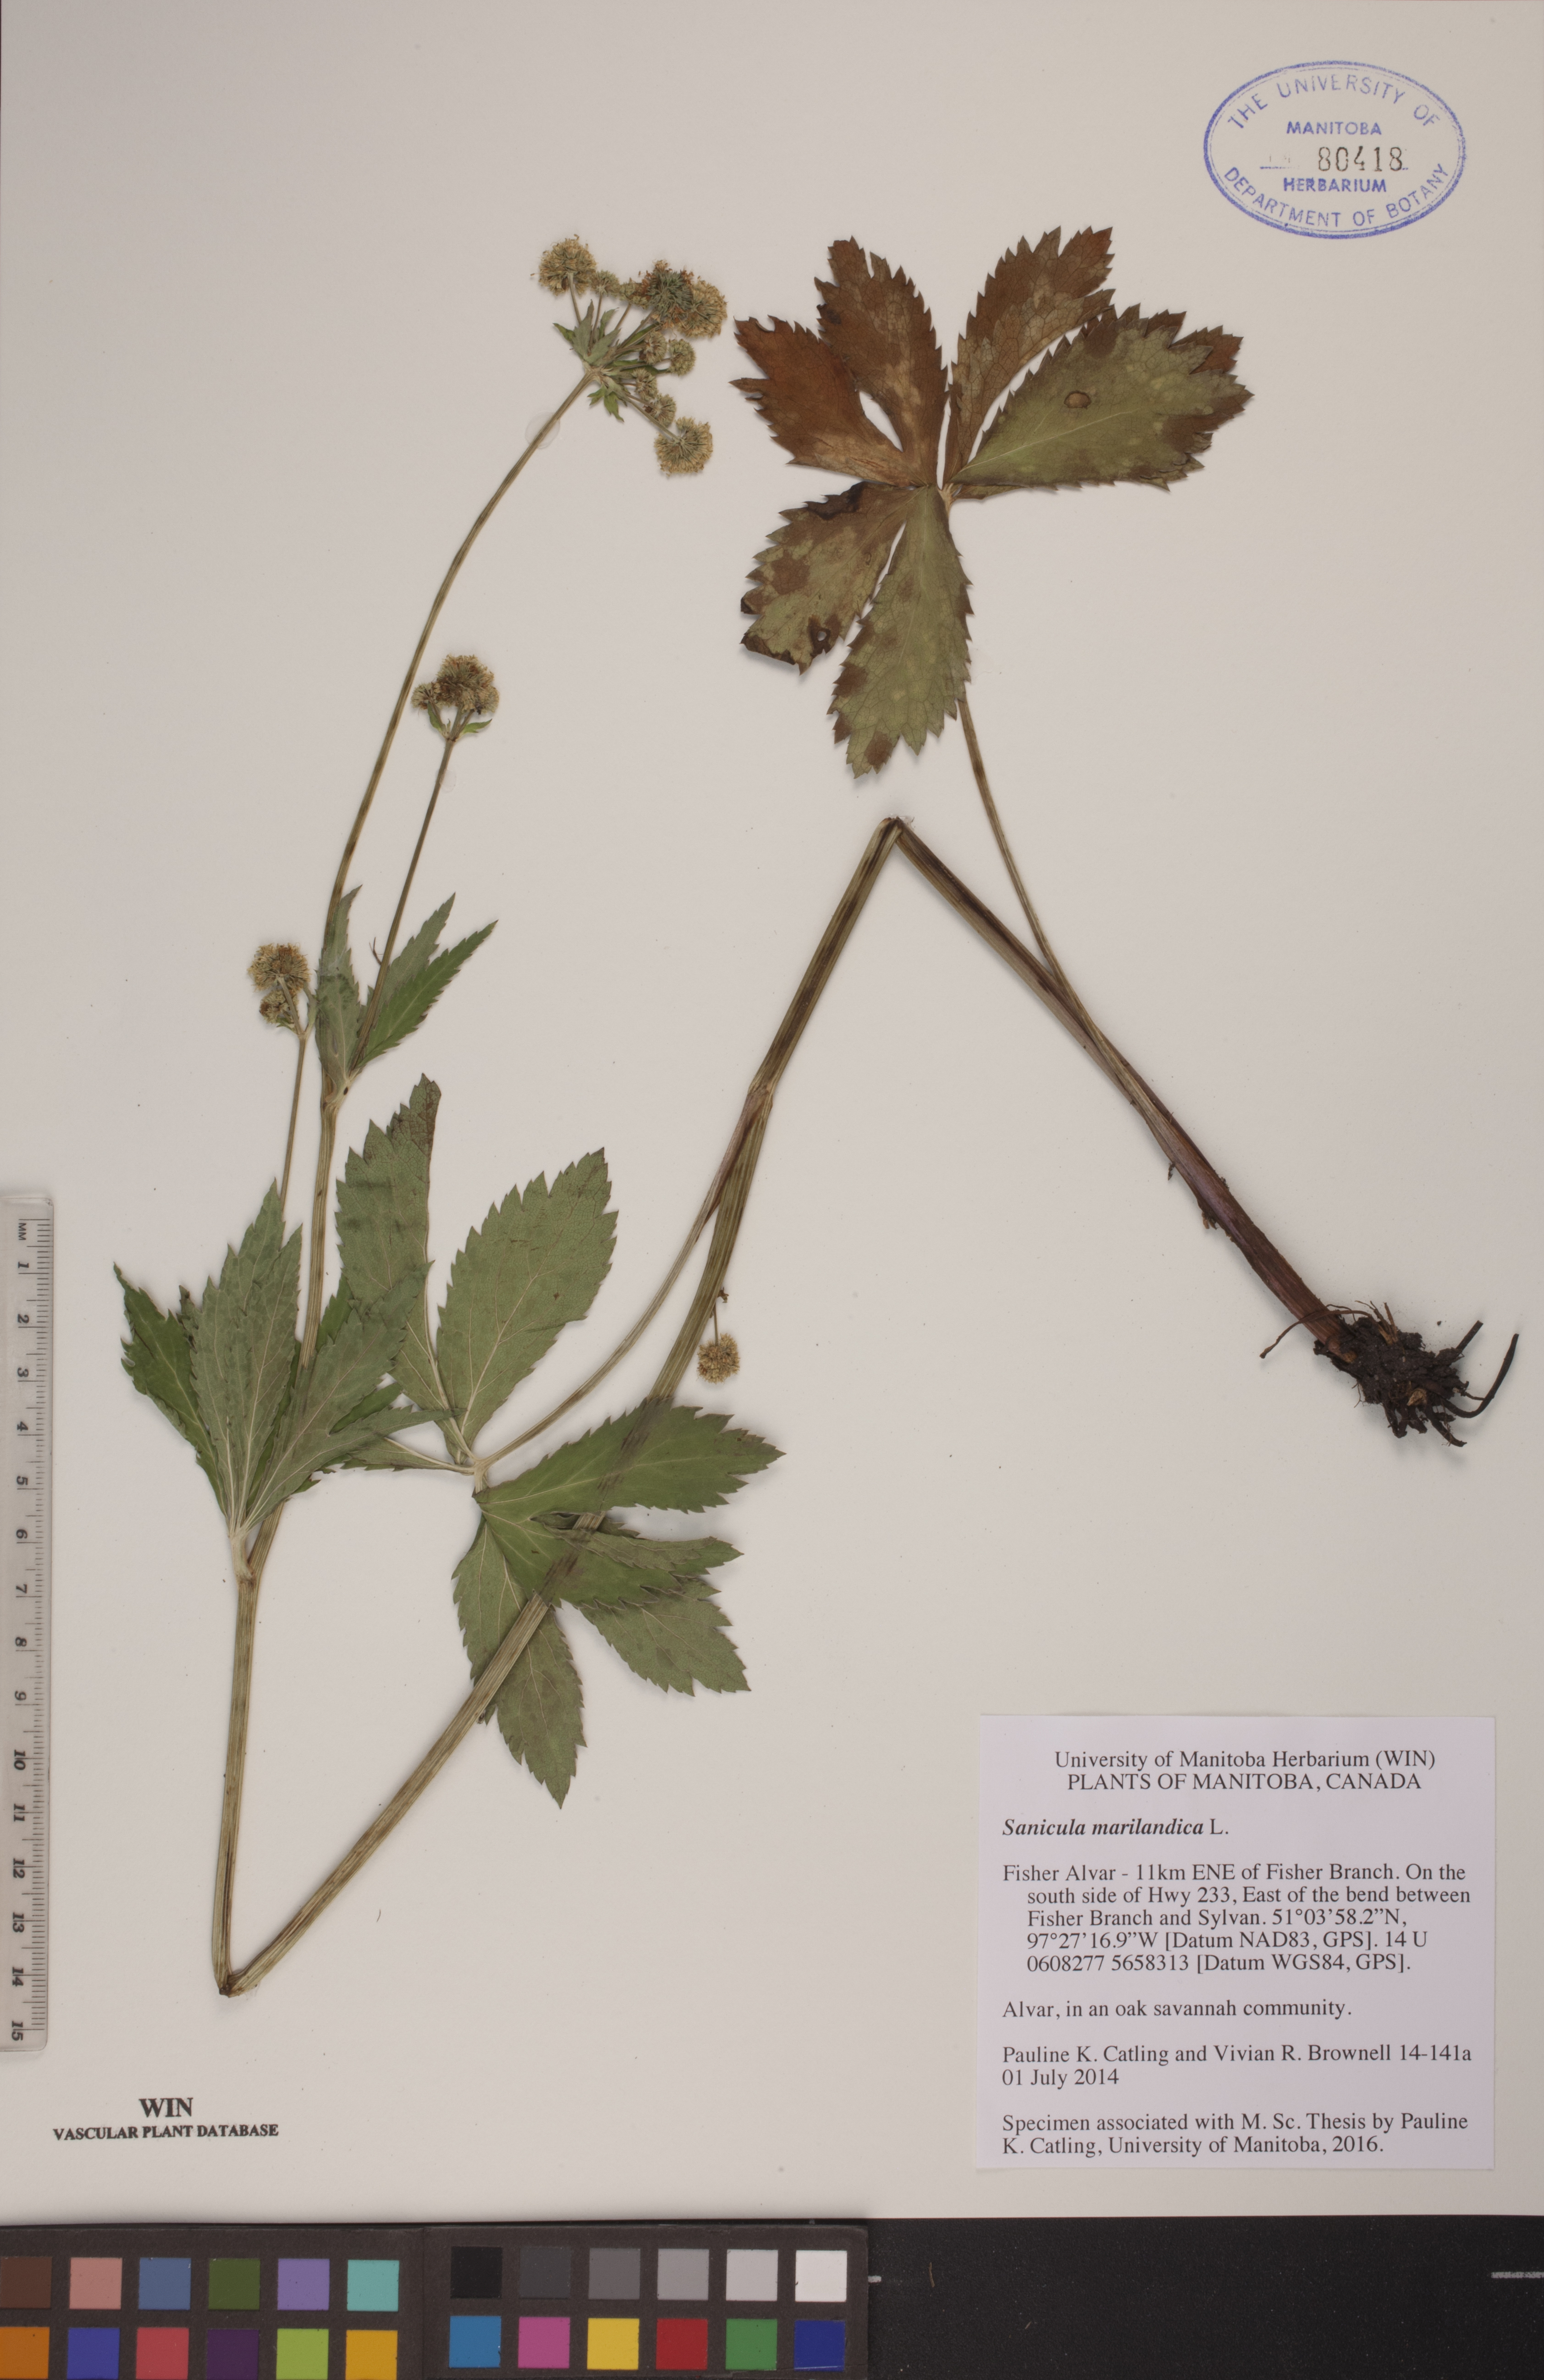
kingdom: Plantae
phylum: Tracheophyta
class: Magnoliopsida
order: Apiales
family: Apiaceae
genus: Sanicula
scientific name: Sanicula marilandica
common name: Black snakeroot
